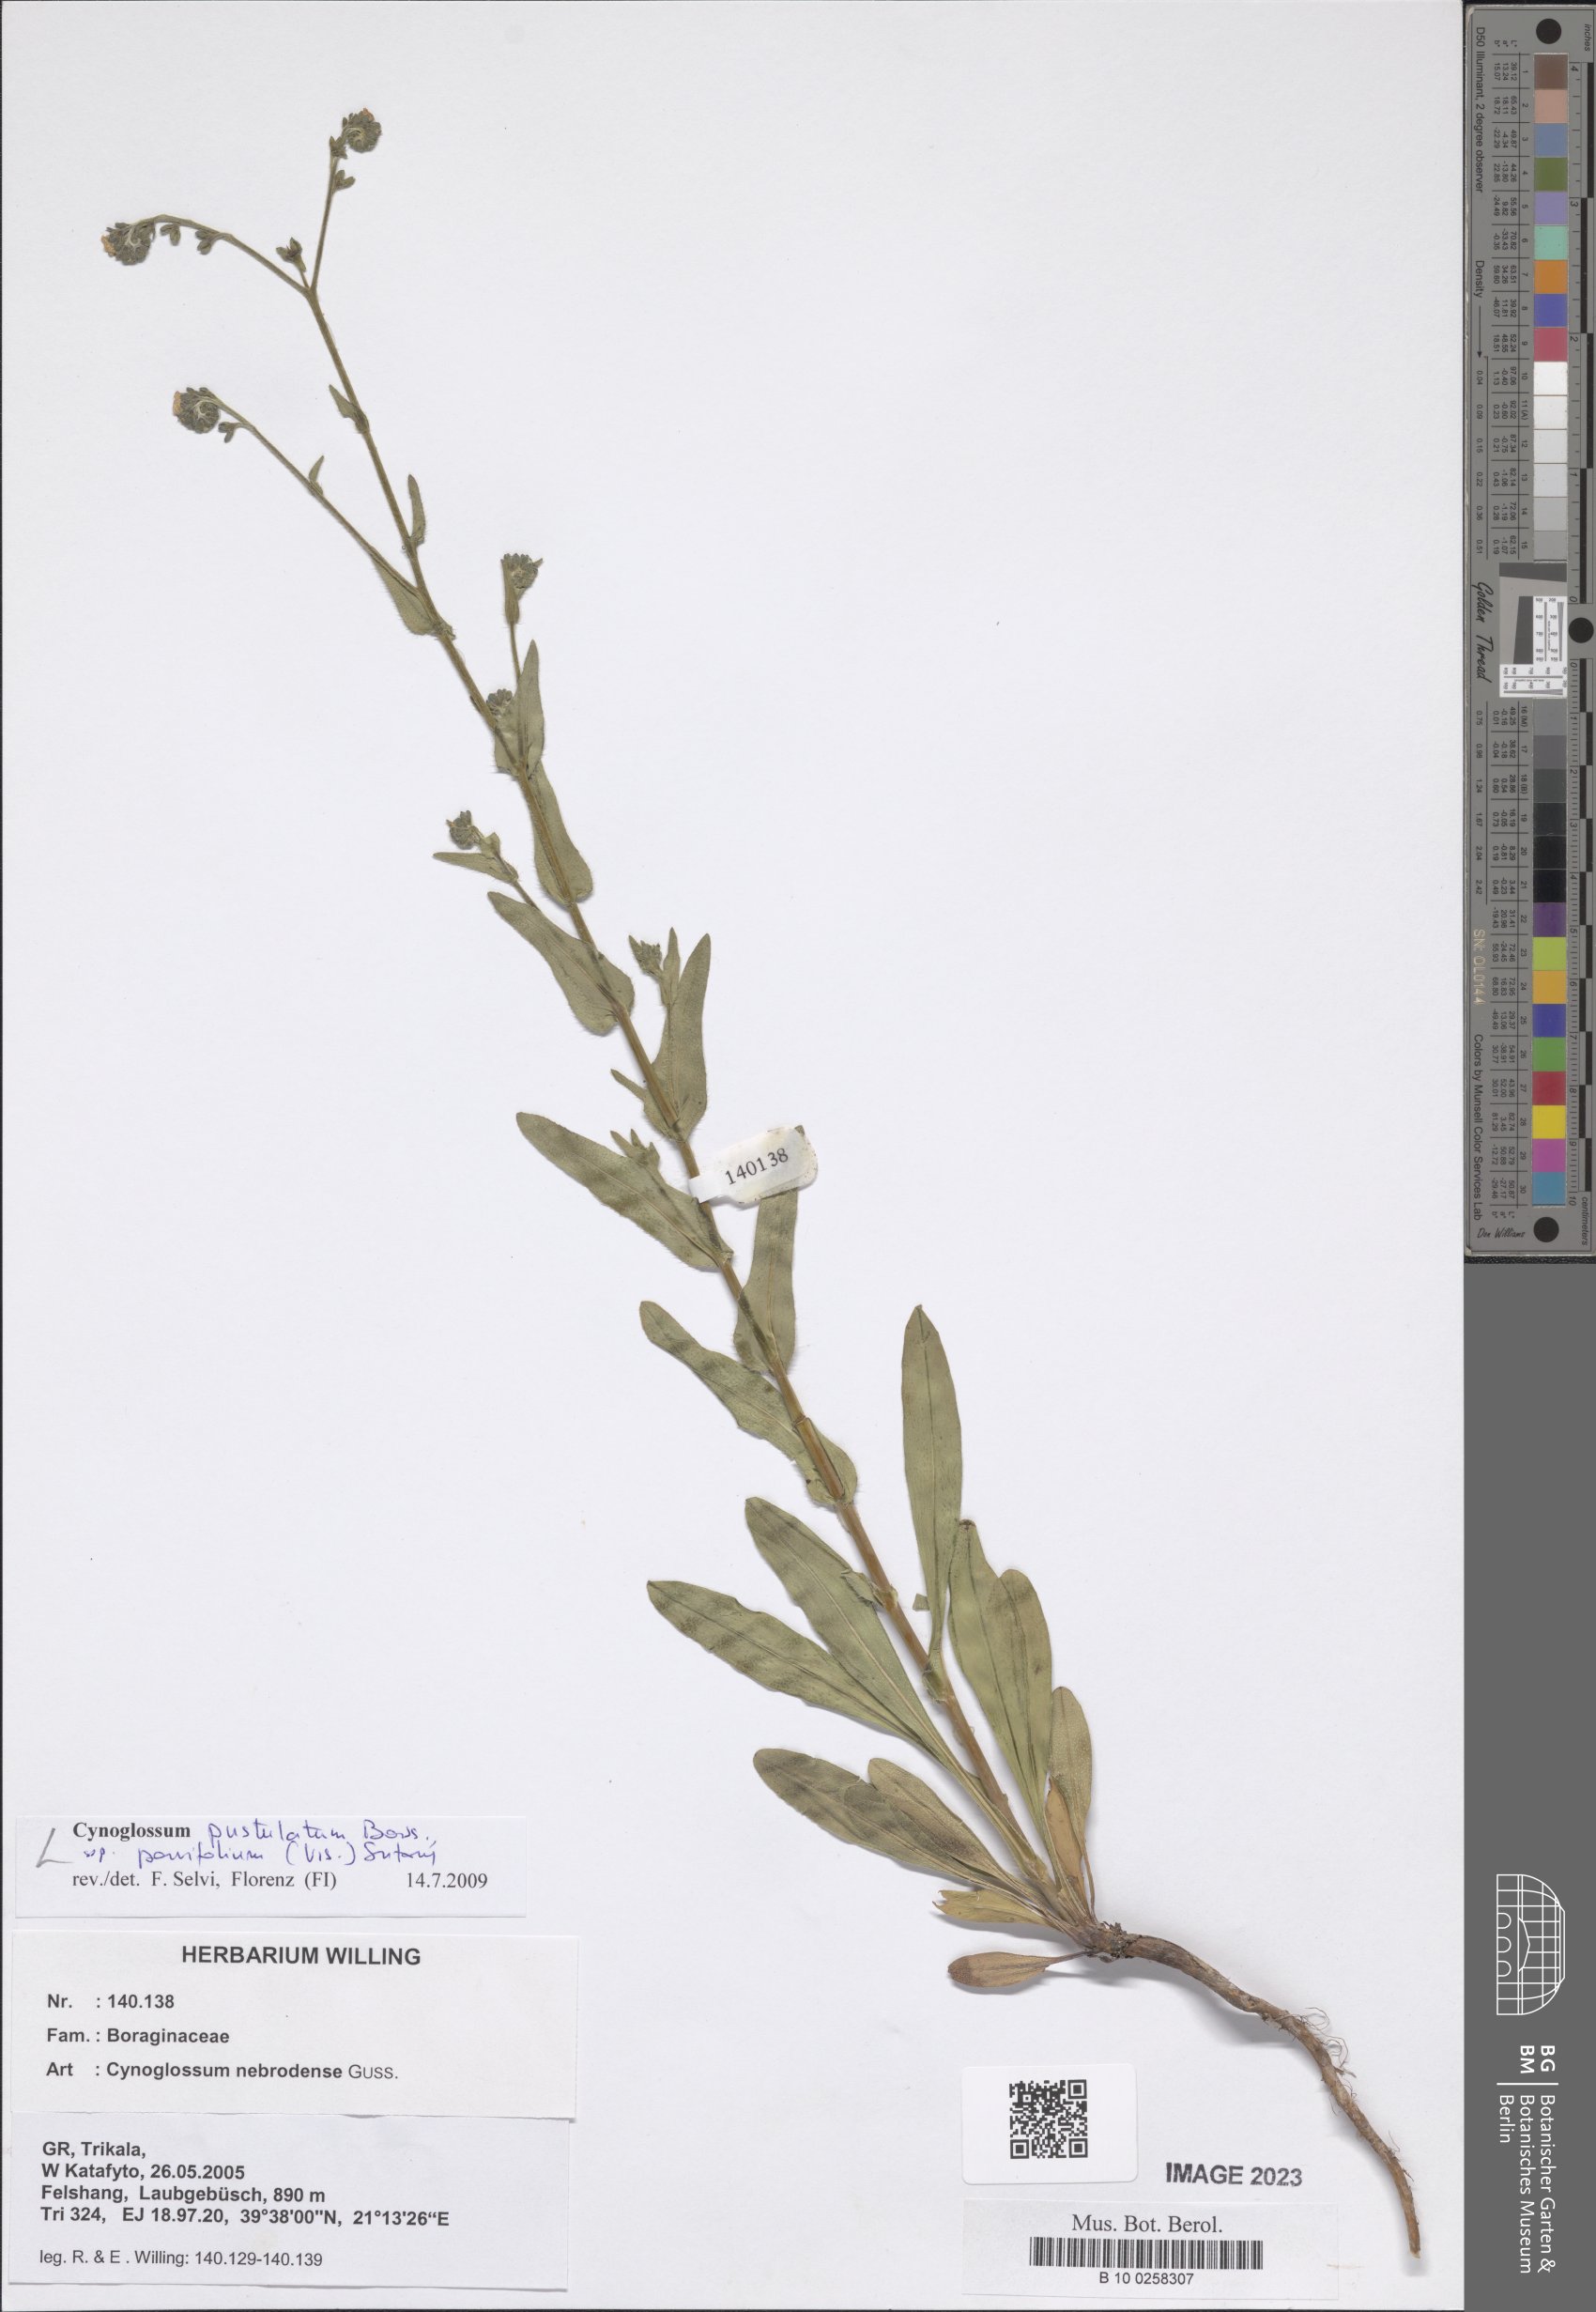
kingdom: Plantae
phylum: Tracheophyta
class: Magnoliopsida
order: Boraginales
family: Boraginaceae
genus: Cynoglossum
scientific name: Cynoglossum pustulatum
